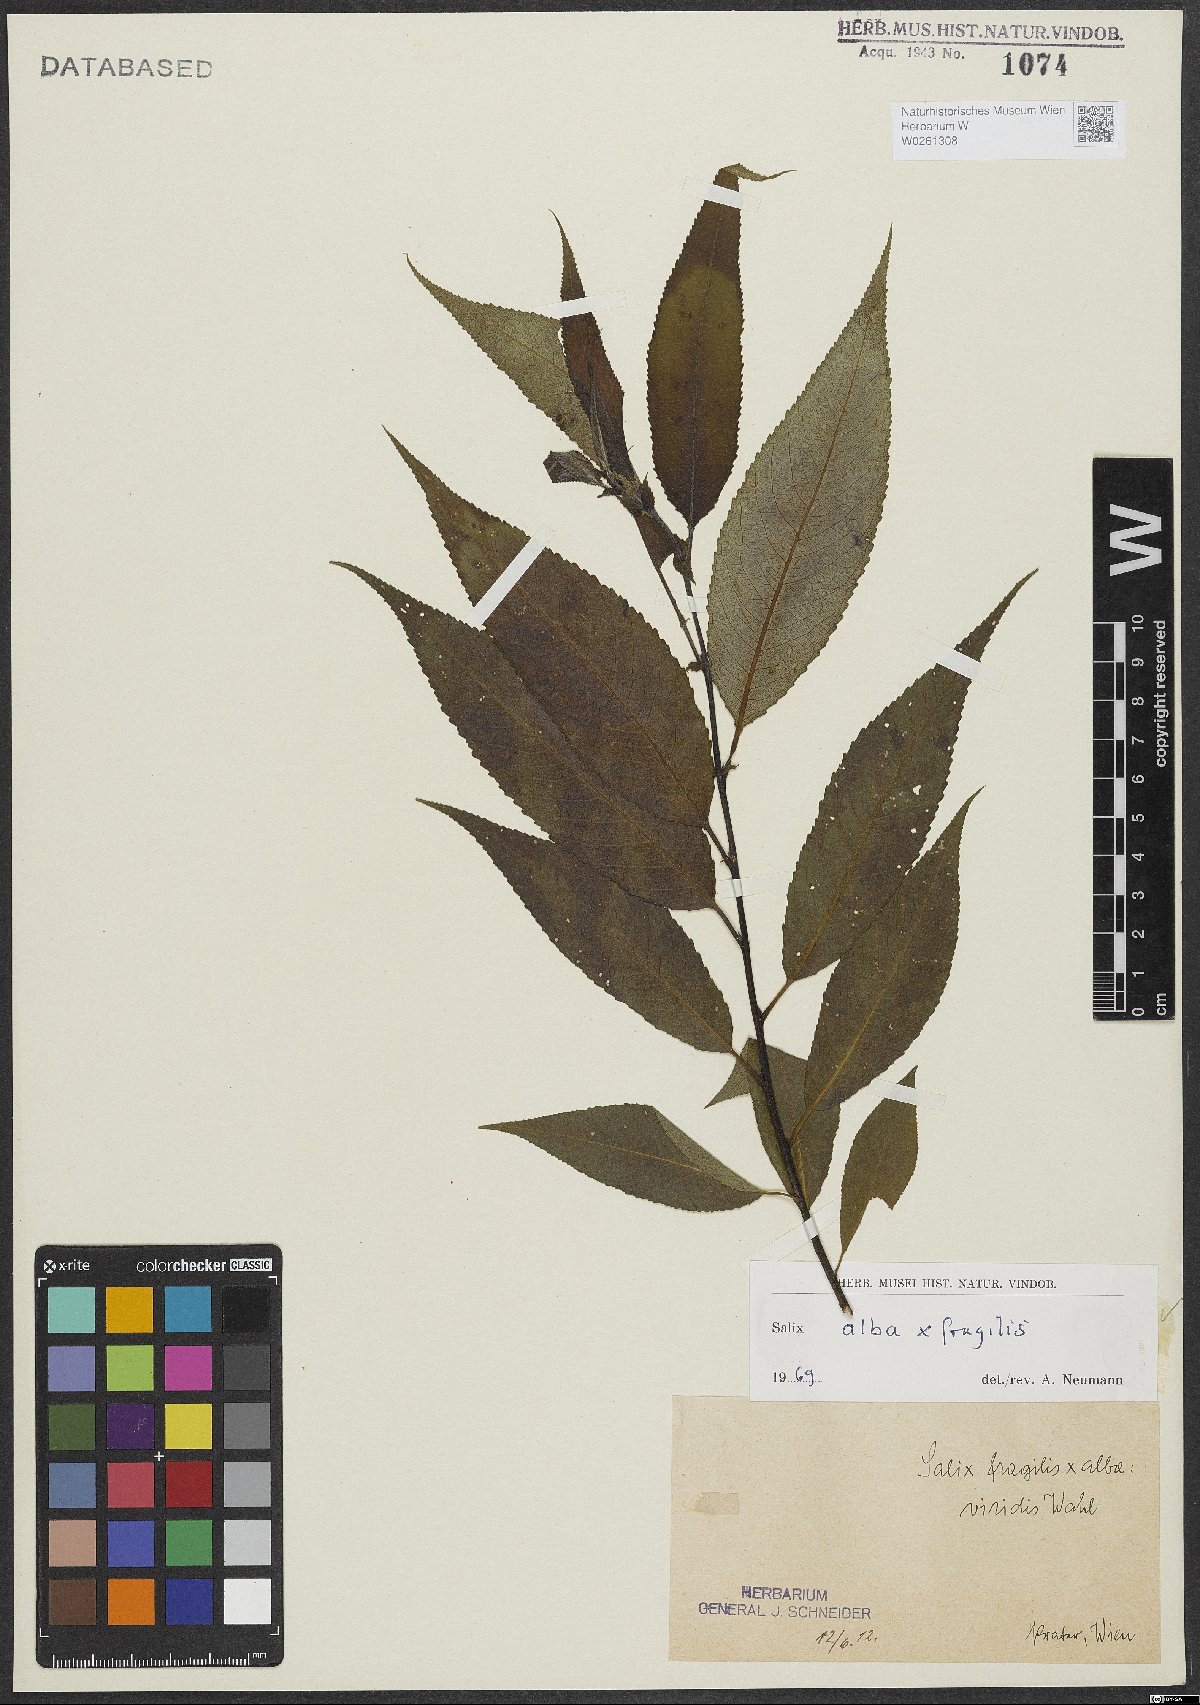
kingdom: Plantae
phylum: Tracheophyta
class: Magnoliopsida
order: Malpighiales
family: Salicaceae
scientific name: Salicaceae
